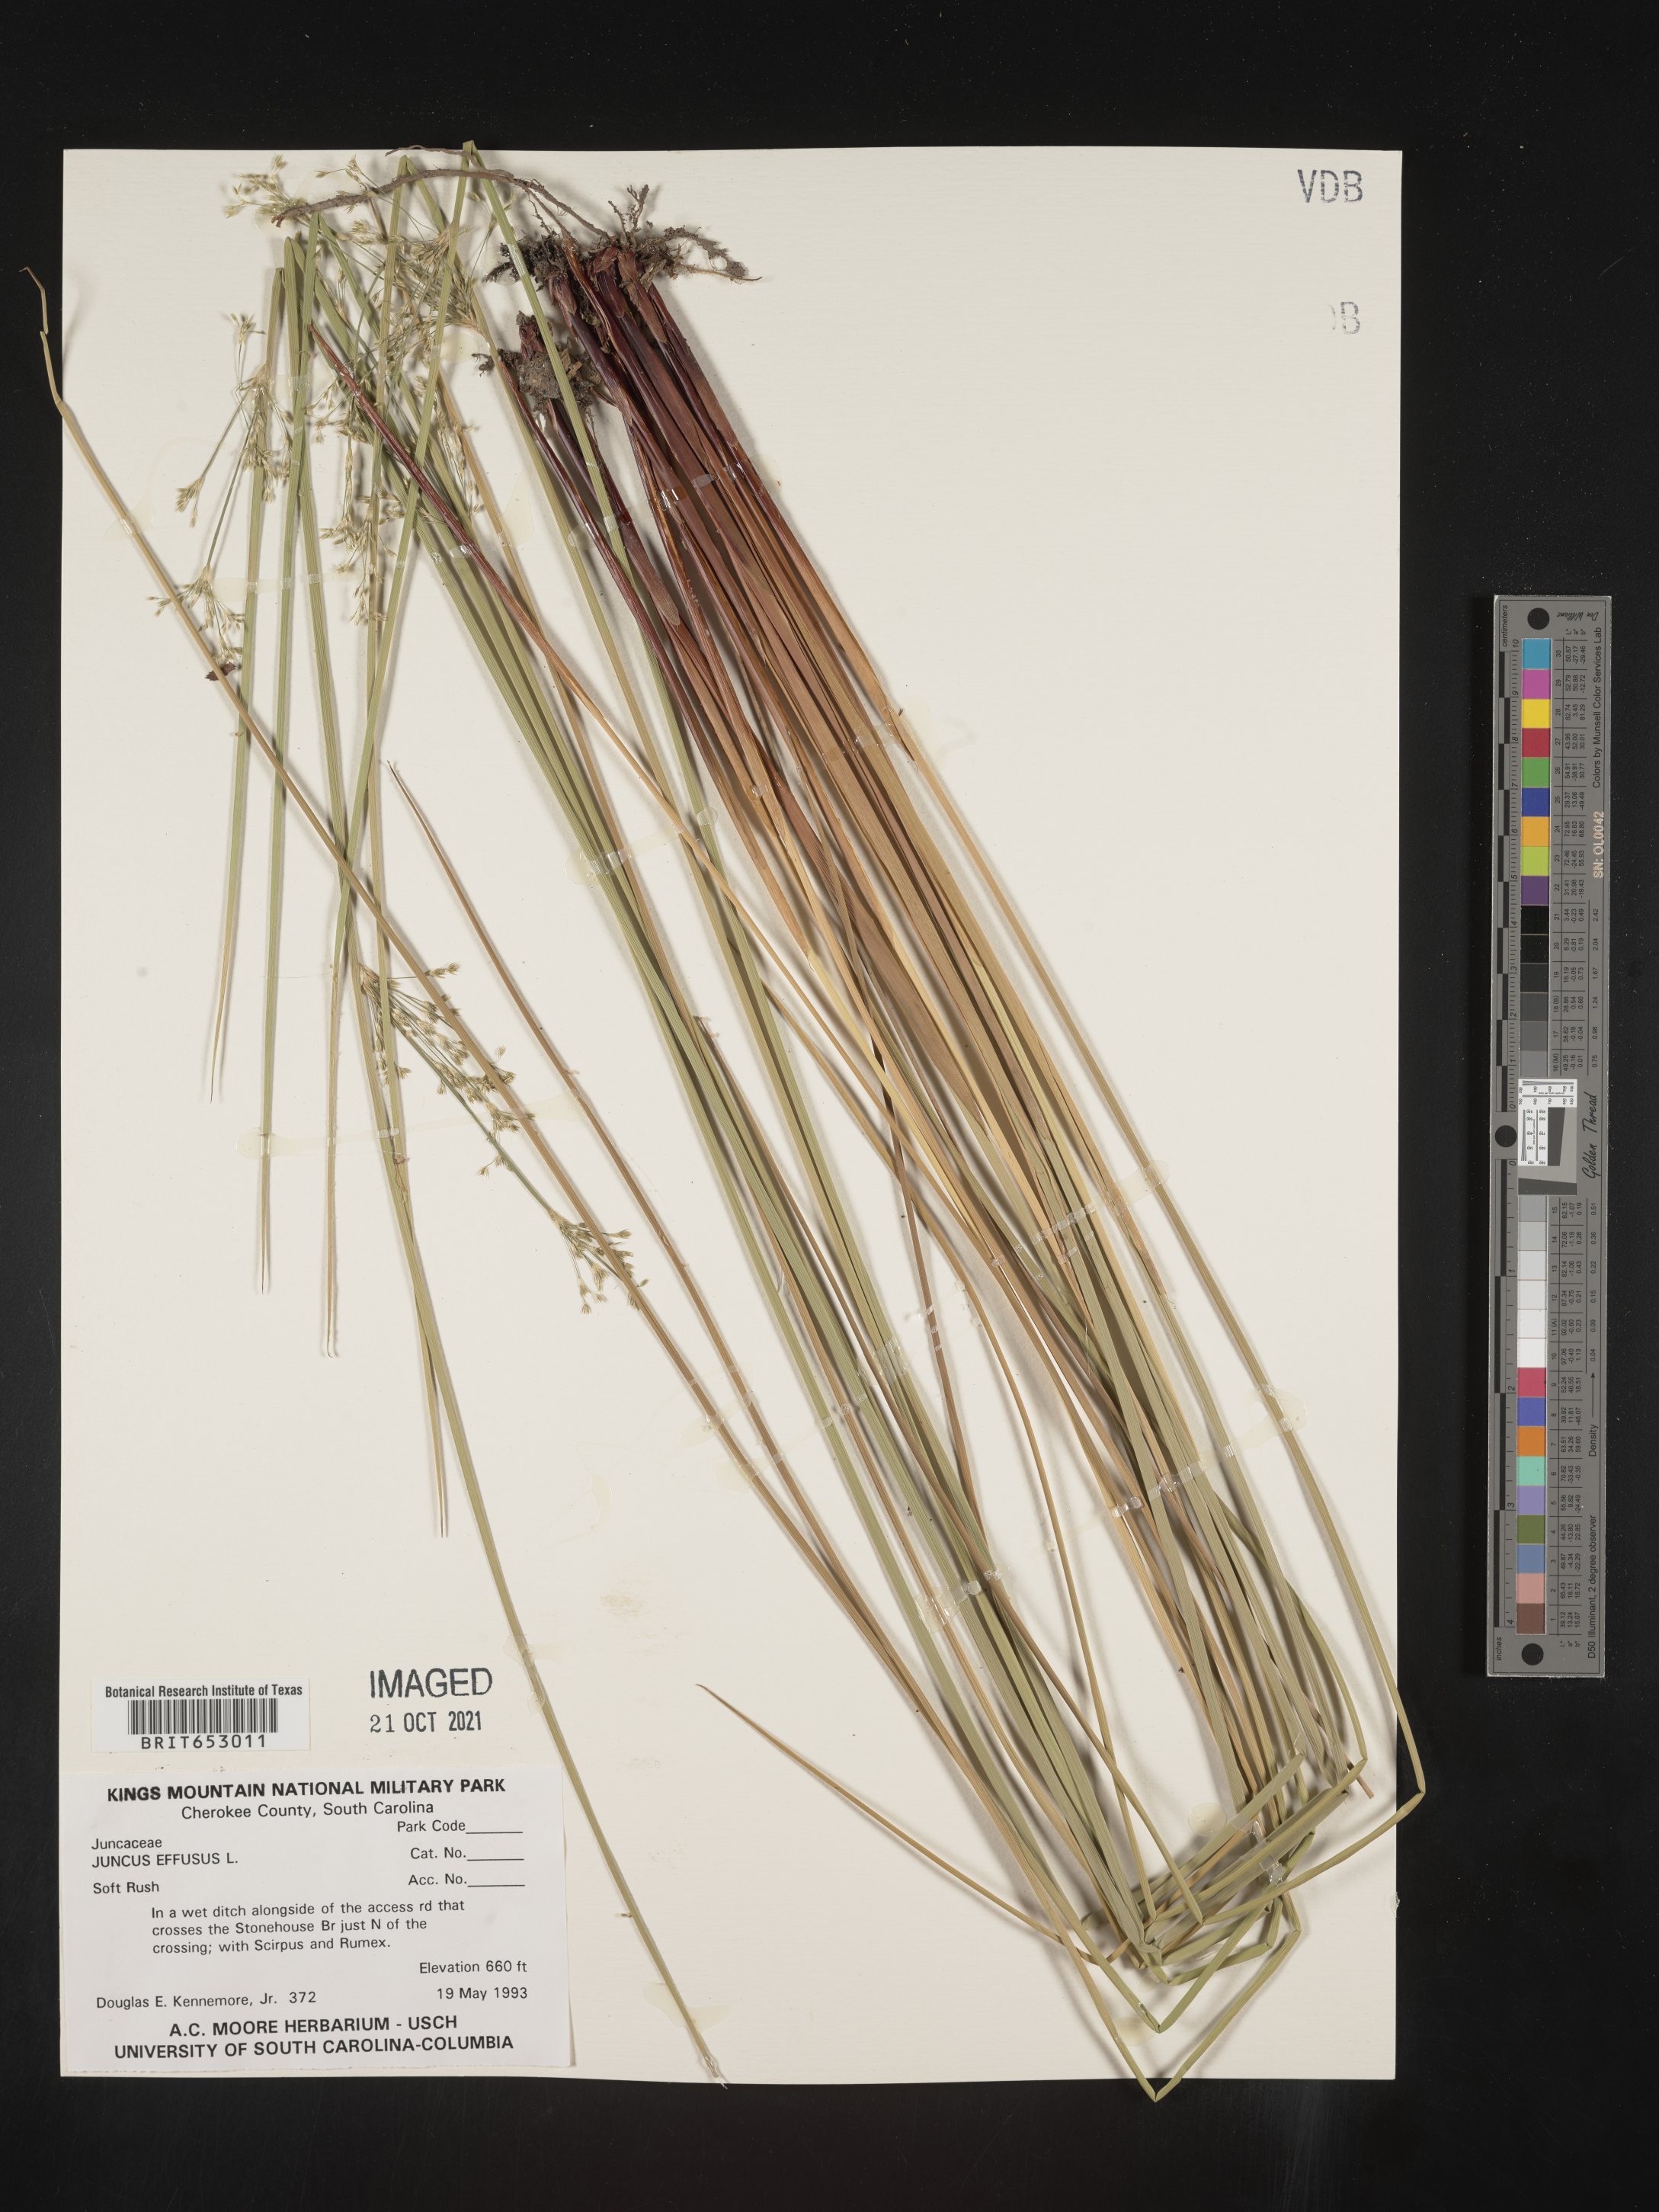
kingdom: Plantae
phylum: Tracheophyta
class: Liliopsida
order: Poales
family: Juncaceae
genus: Juncus
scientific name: Juncus effusus
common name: Soft rush
